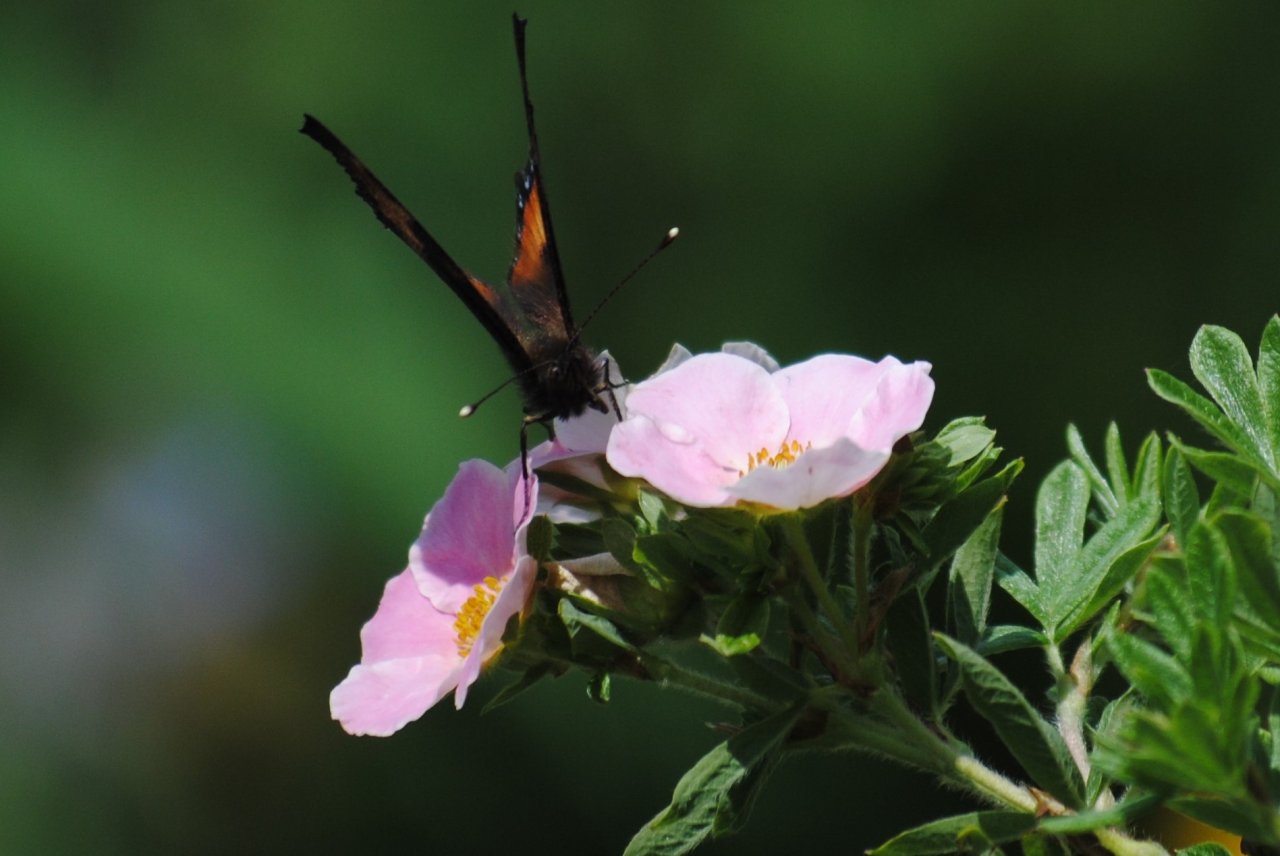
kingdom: Animalia
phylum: Arthropoda
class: Insecta
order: Lepidoptera
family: Nymphalidae
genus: Aglais
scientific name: Aglais milberti
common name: Milbert's Tortoiseshell
